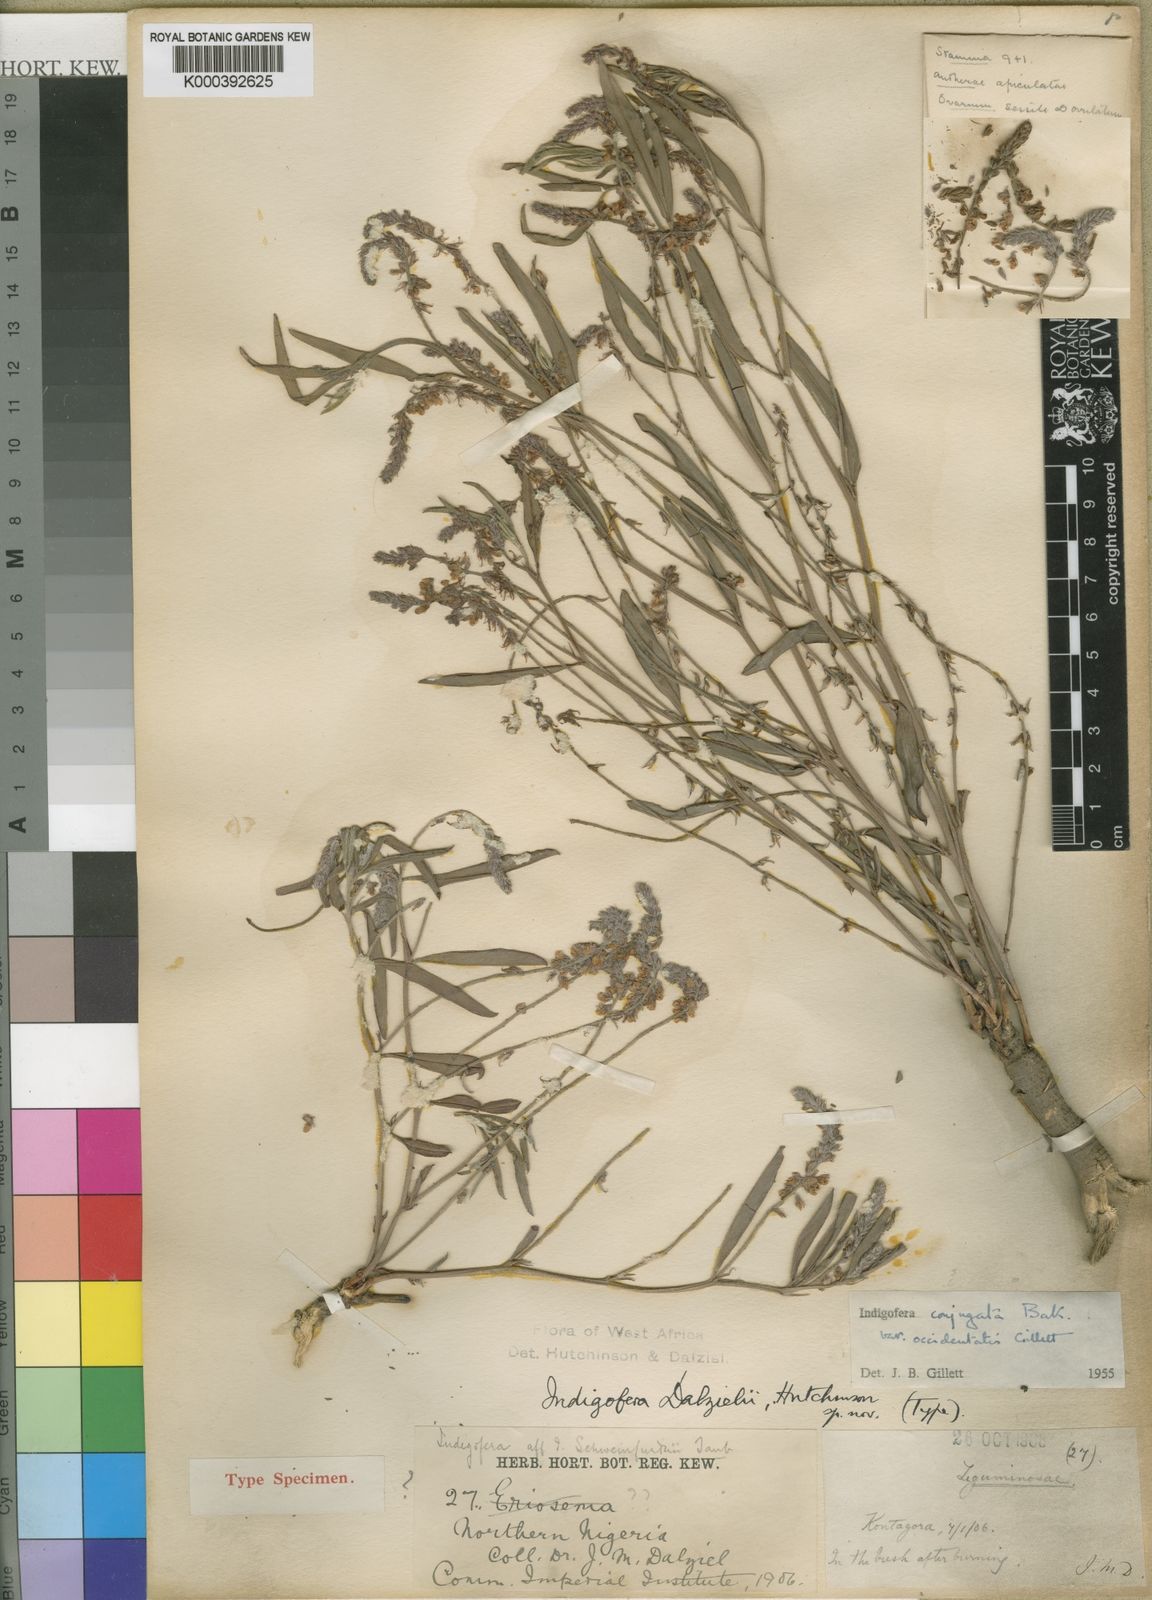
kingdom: Plantae
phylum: Tracheophyta
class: Magnoliopsida
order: Fabales
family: Fabaceae
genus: Indigofera
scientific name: Indigofera conjugata
